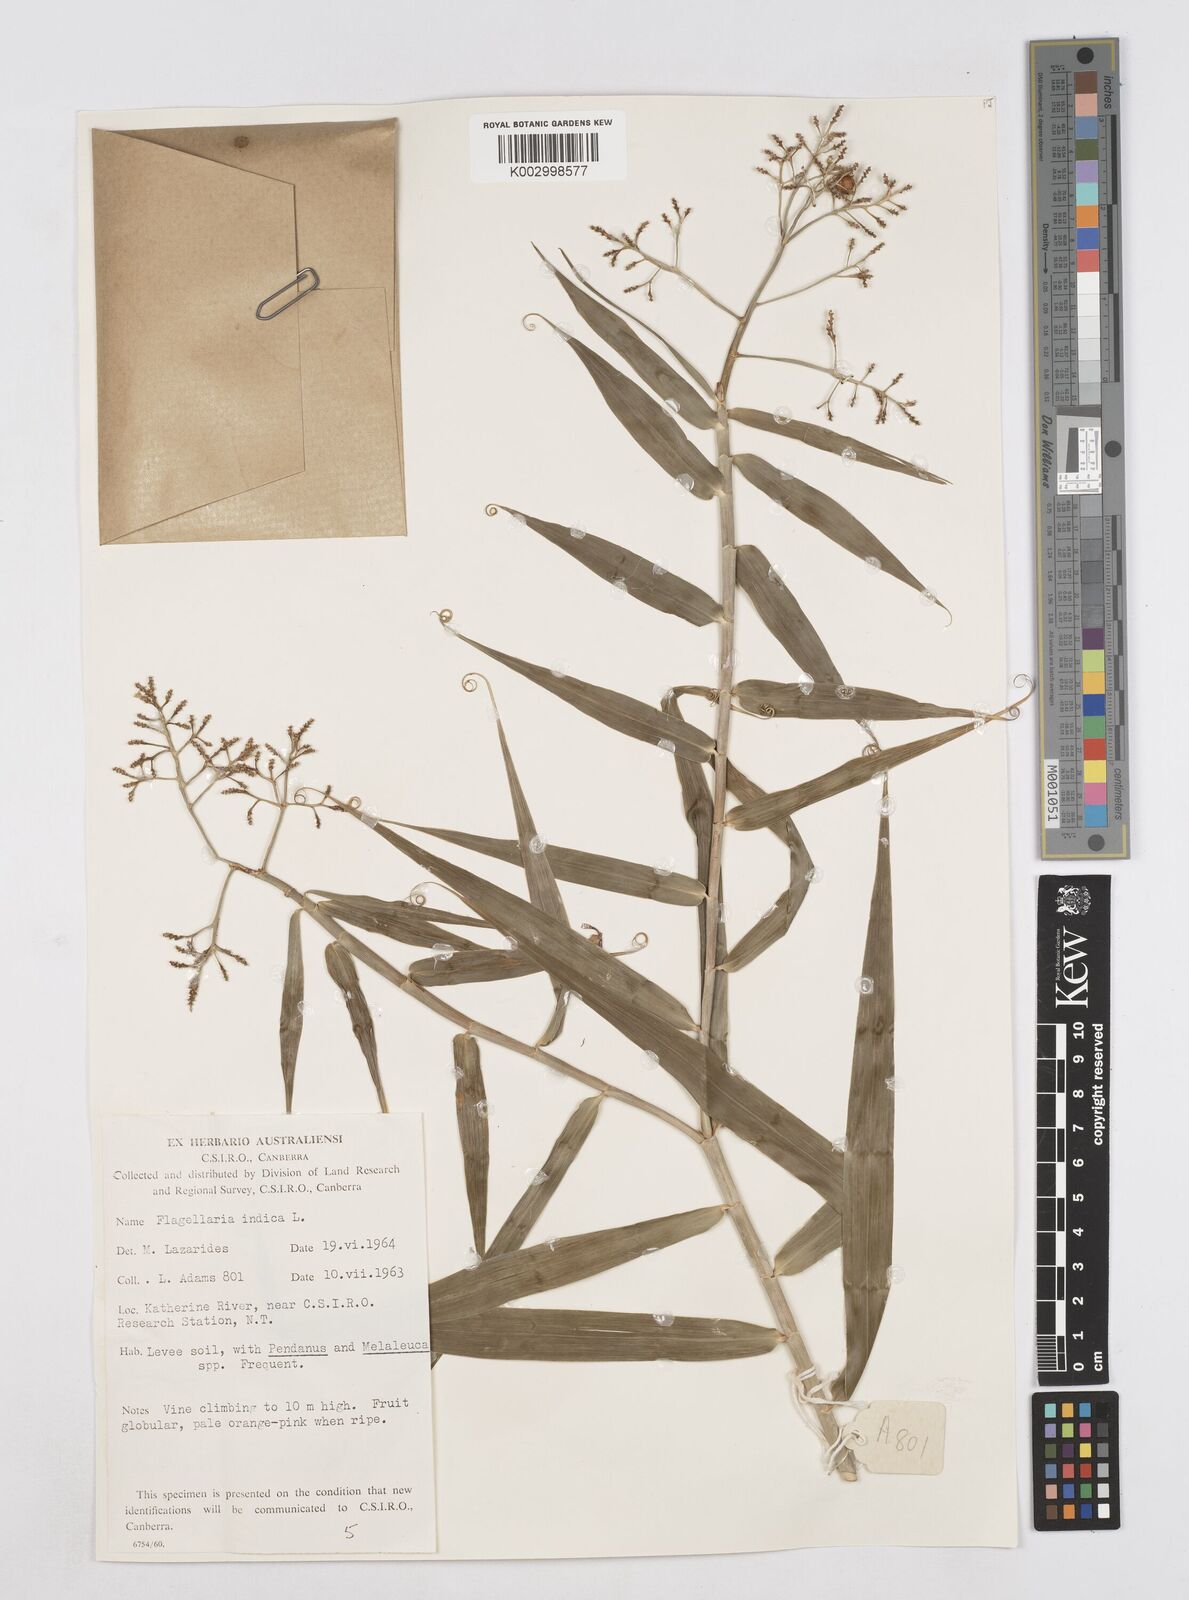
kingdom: Plantae
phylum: Tracheophyta
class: Liliopsida
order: Poales
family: Flagellariaceae
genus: Flagellaria
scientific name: Flagellaria indica
